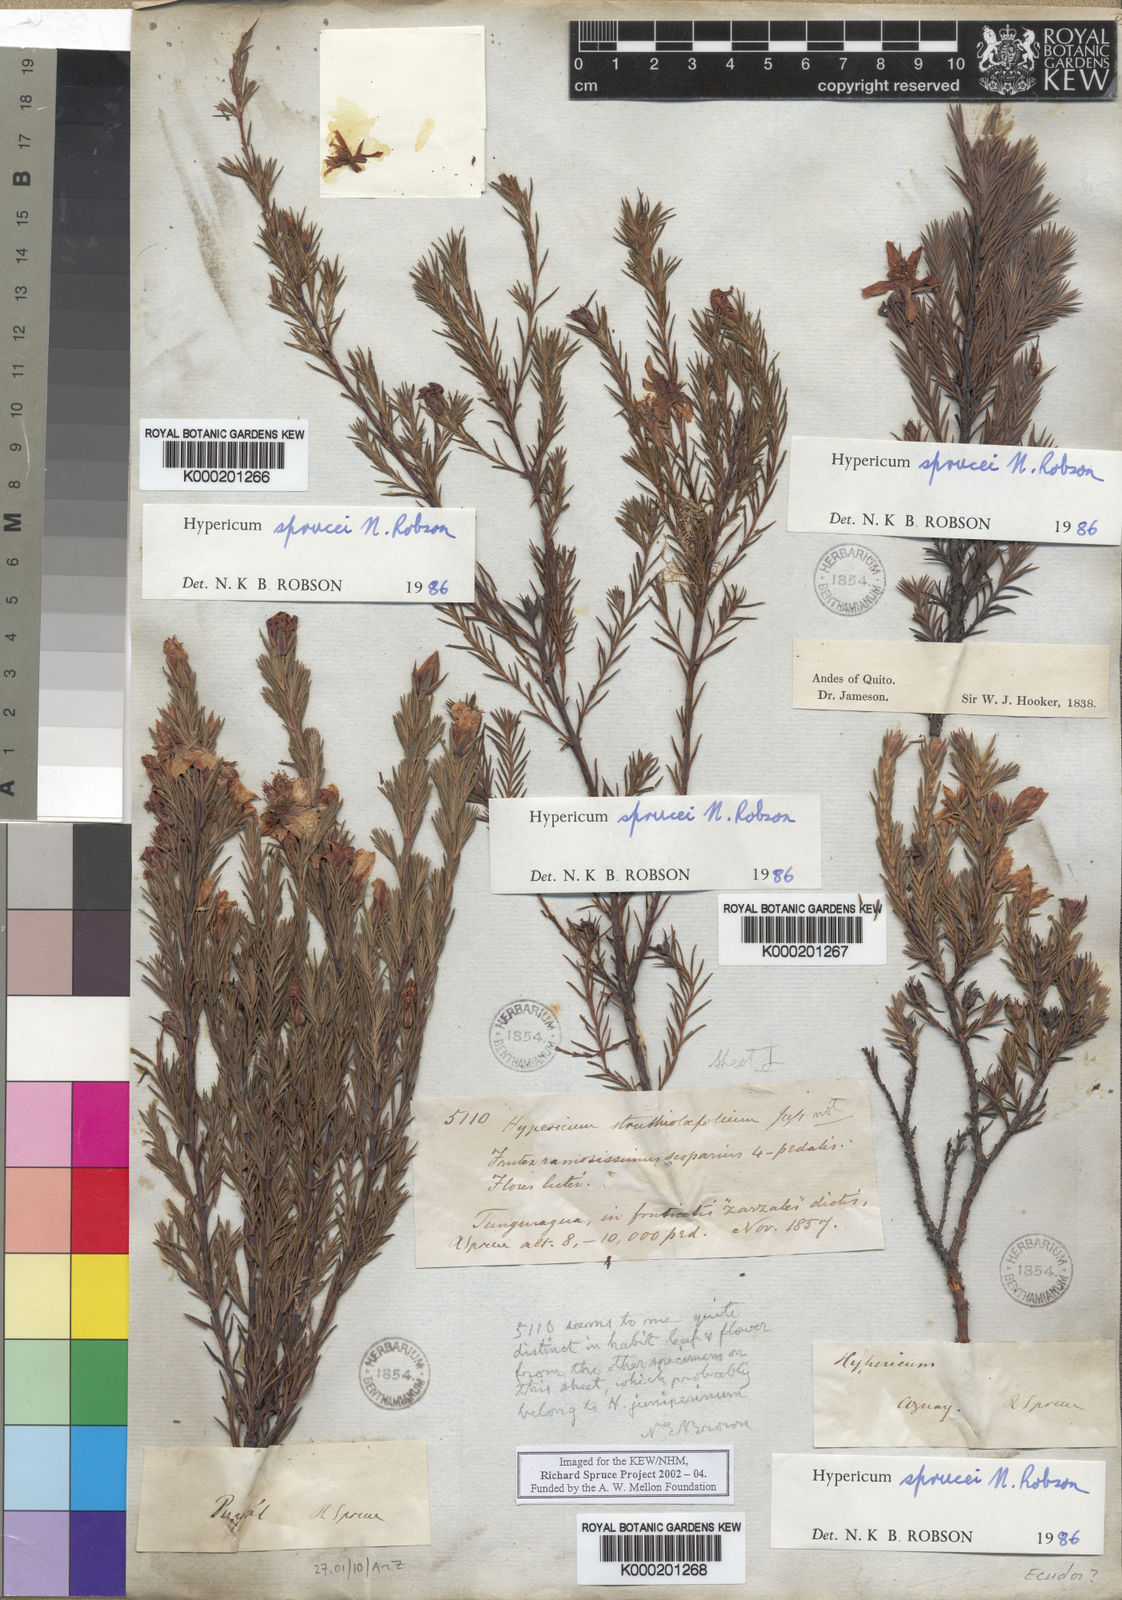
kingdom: Plantae
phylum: Tracheophyta
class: Magnoliopsida
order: Malpighiales
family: Hypericaceae
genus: Hypericum
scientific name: Hypericum sprucei
